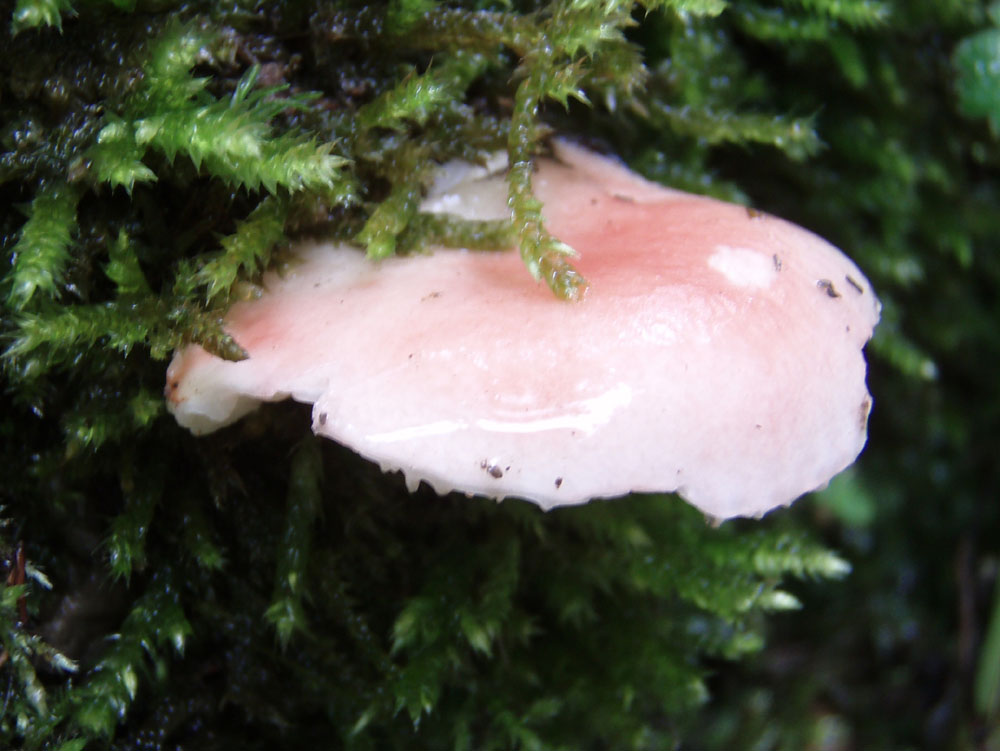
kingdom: Fungi
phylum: Basidiomycota
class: Agaricomycetes
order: Russulales
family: Russulaceae
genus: Russula
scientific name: Russula luteotacta
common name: gulplettet gift-skørhat
